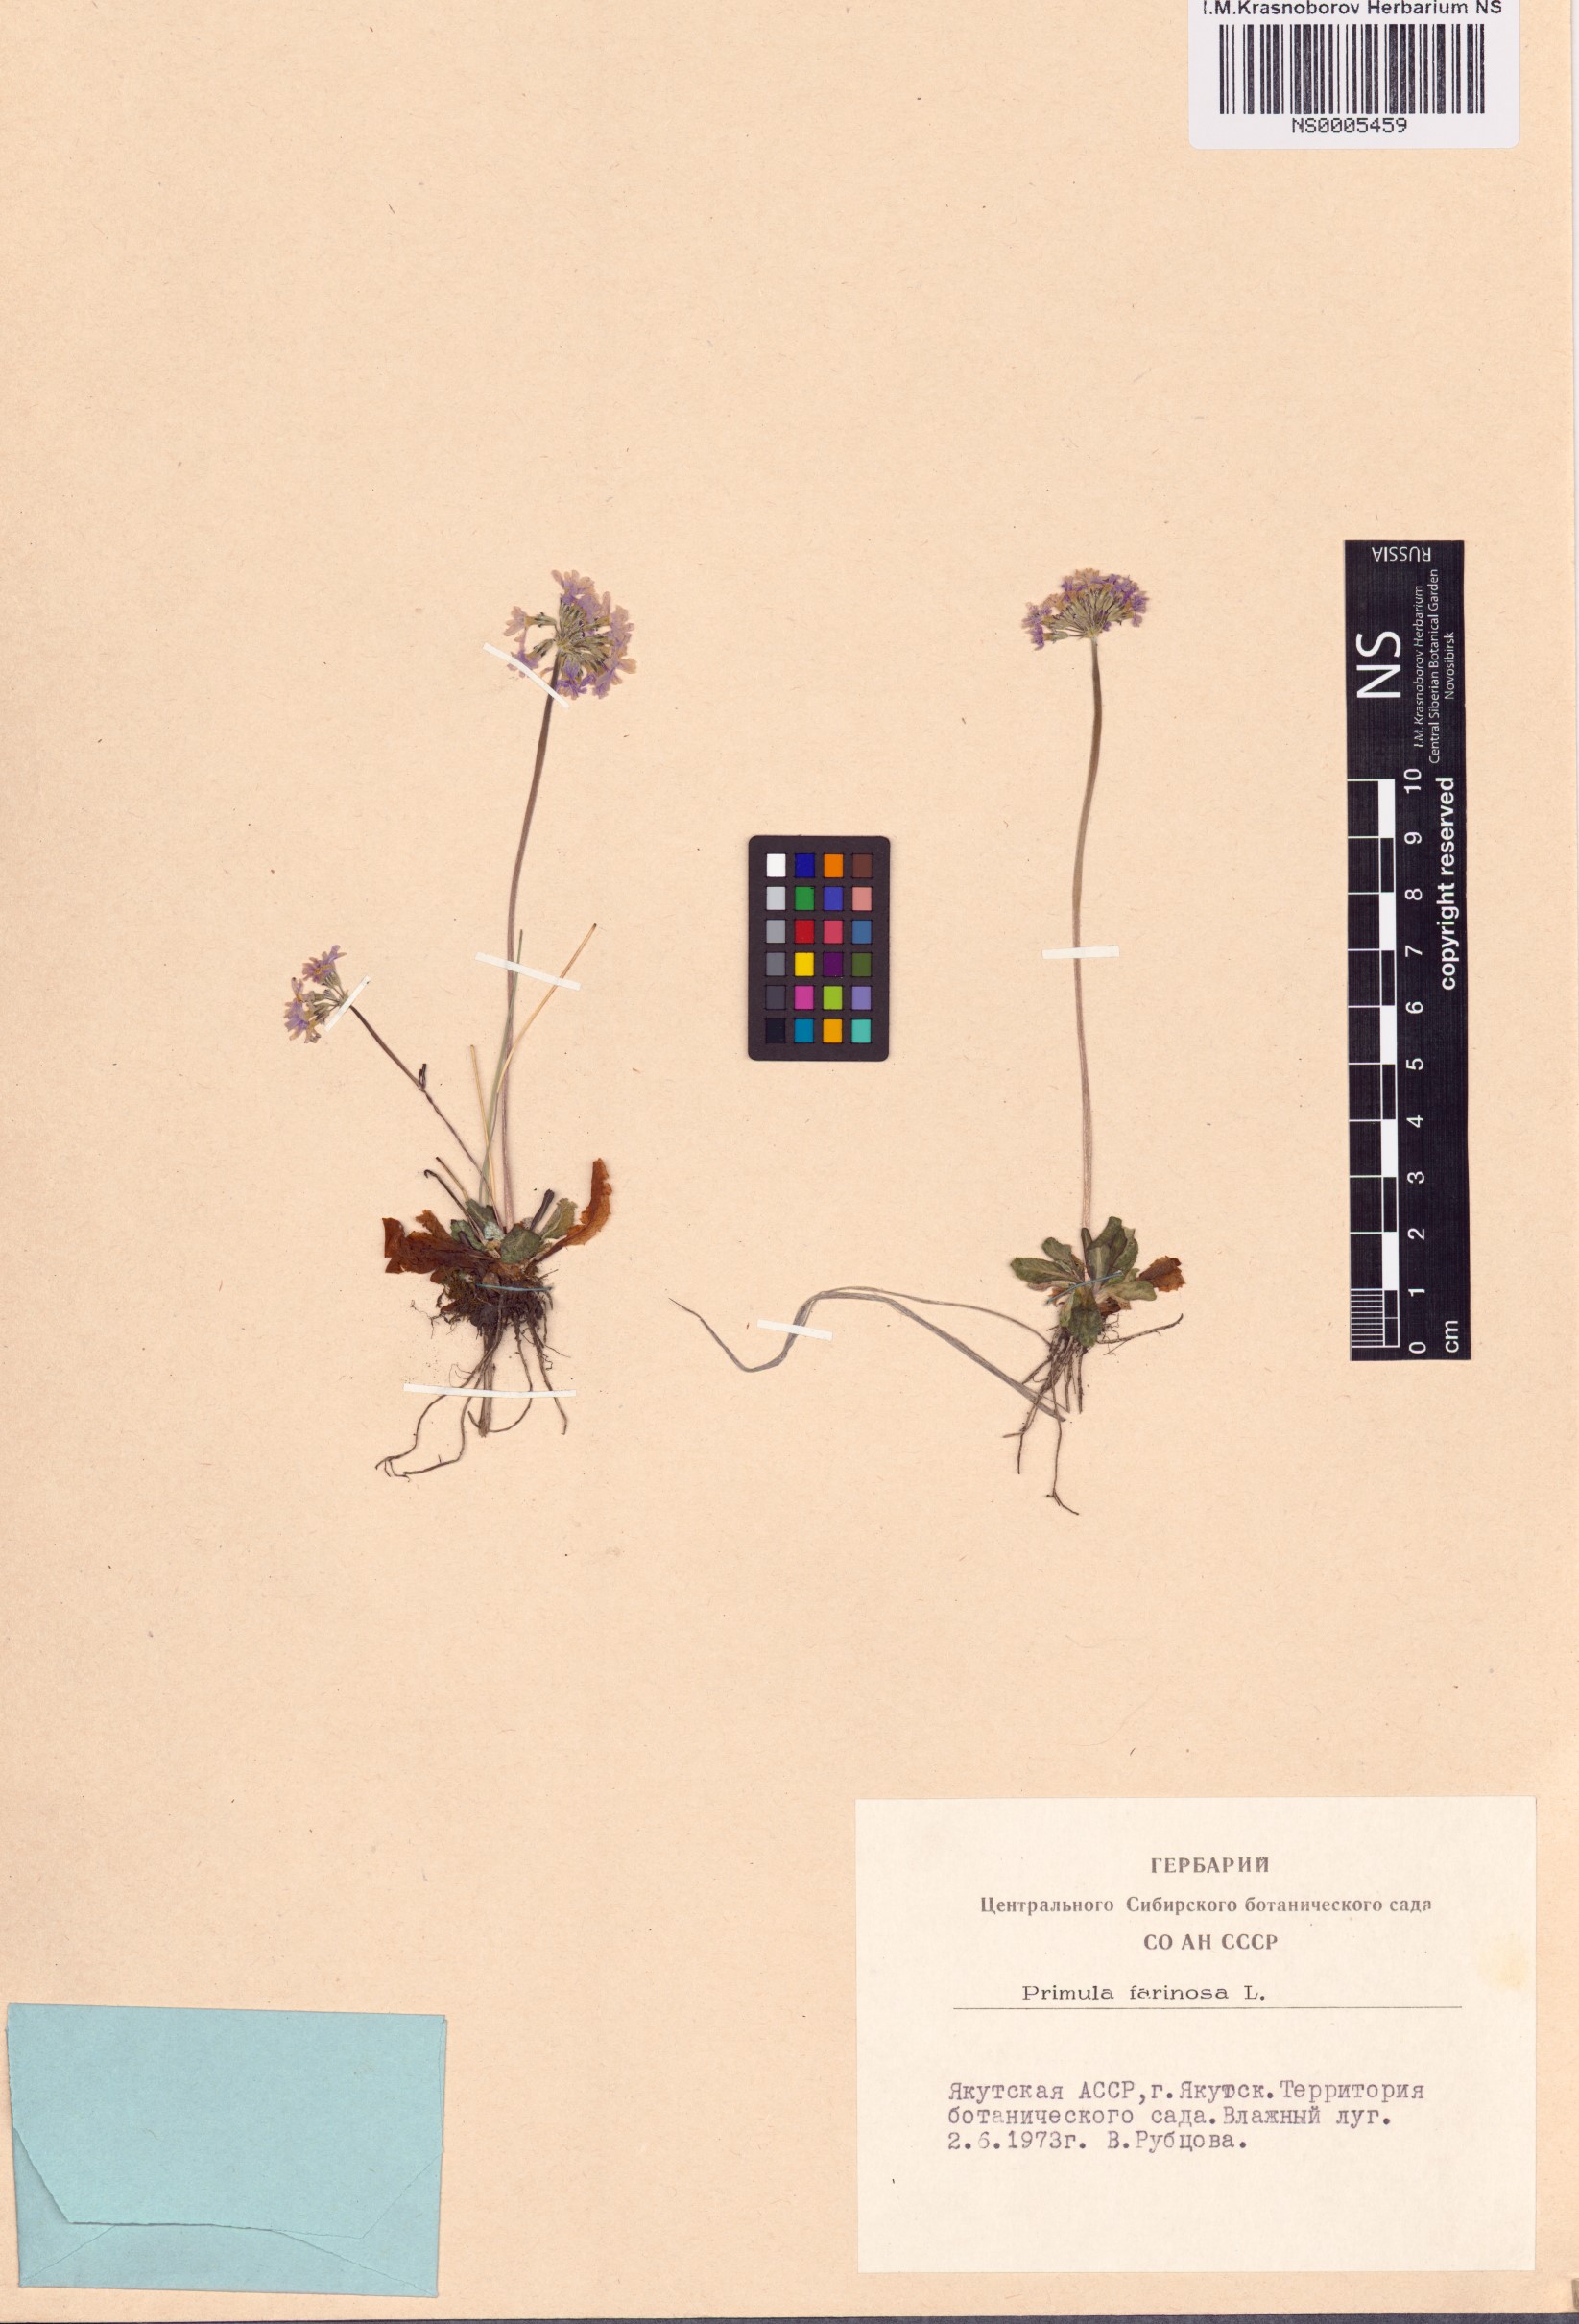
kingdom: Plantae
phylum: Tracheophyta
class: Magnoliopsida
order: Ericales
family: Primulaceae
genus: Primula
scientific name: Primula farinosa
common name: Bird's-eye primrose
